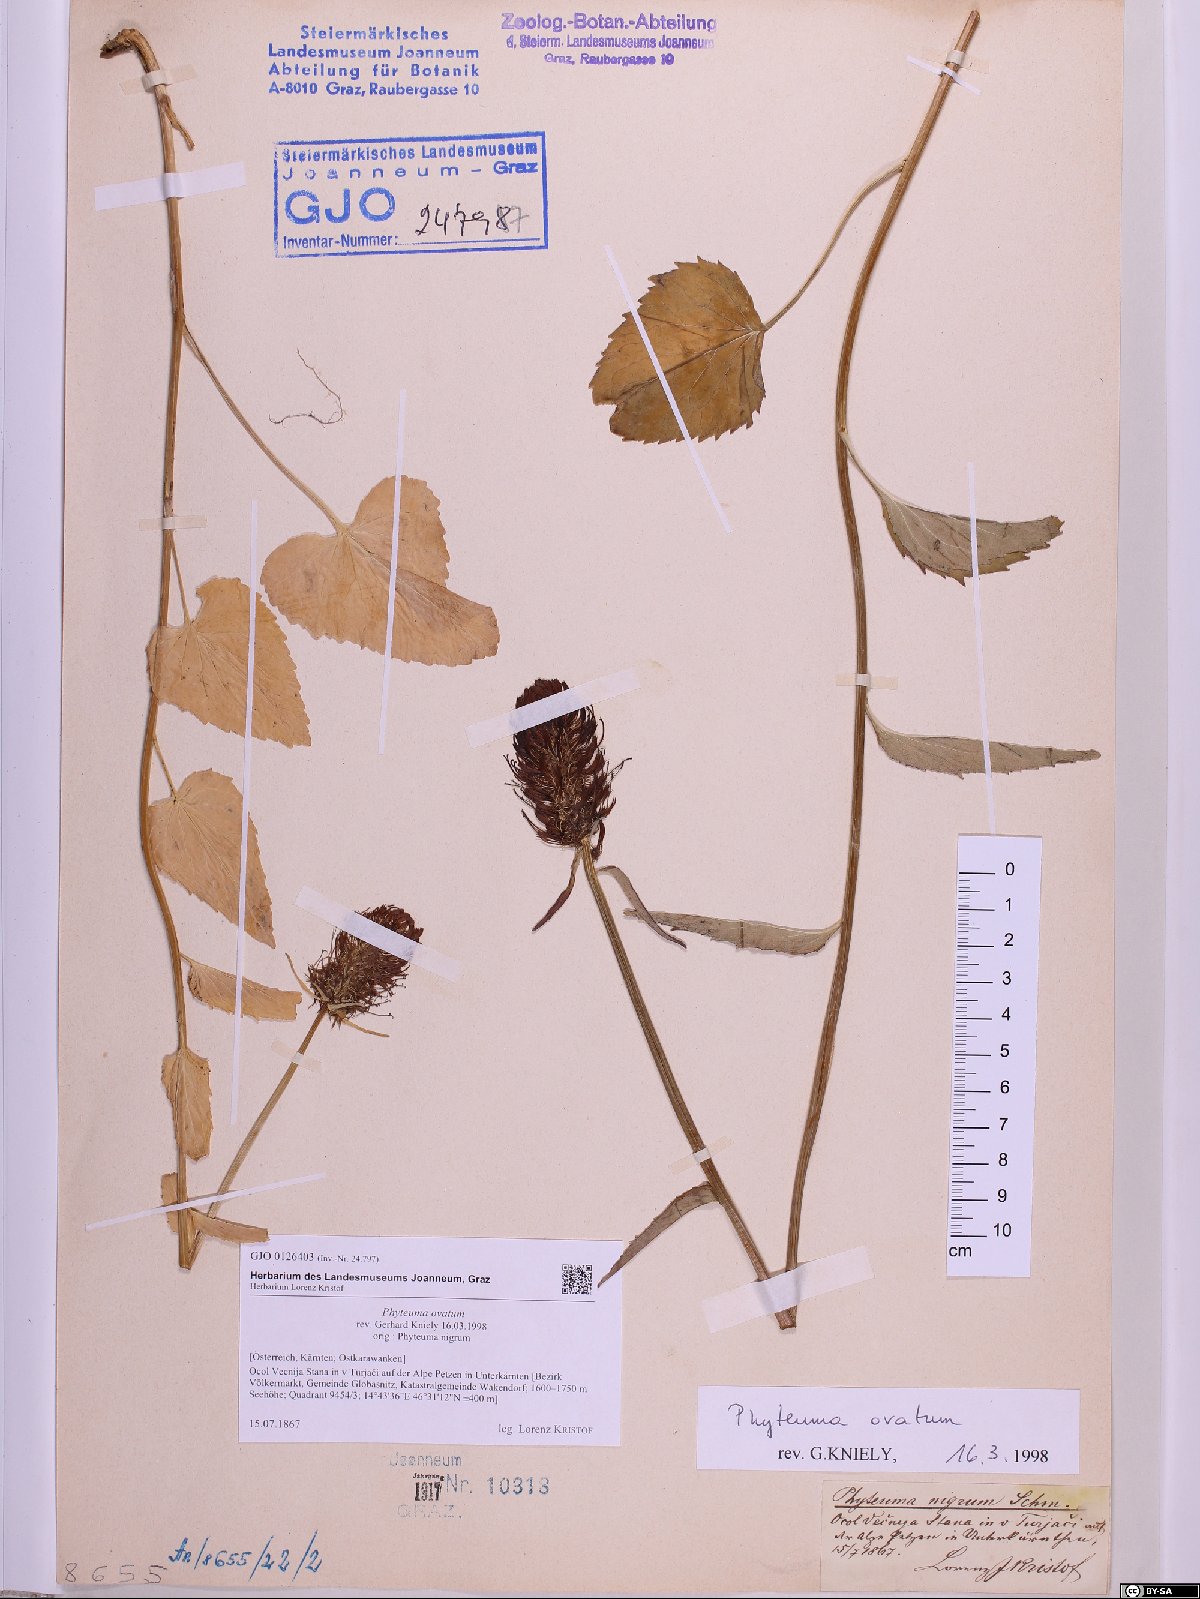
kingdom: Plantae
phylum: Tracheophyta
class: Magnoliopsida
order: Asterales
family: Campanulaceae
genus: Phyteuma
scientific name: Phyteuma ovatum
